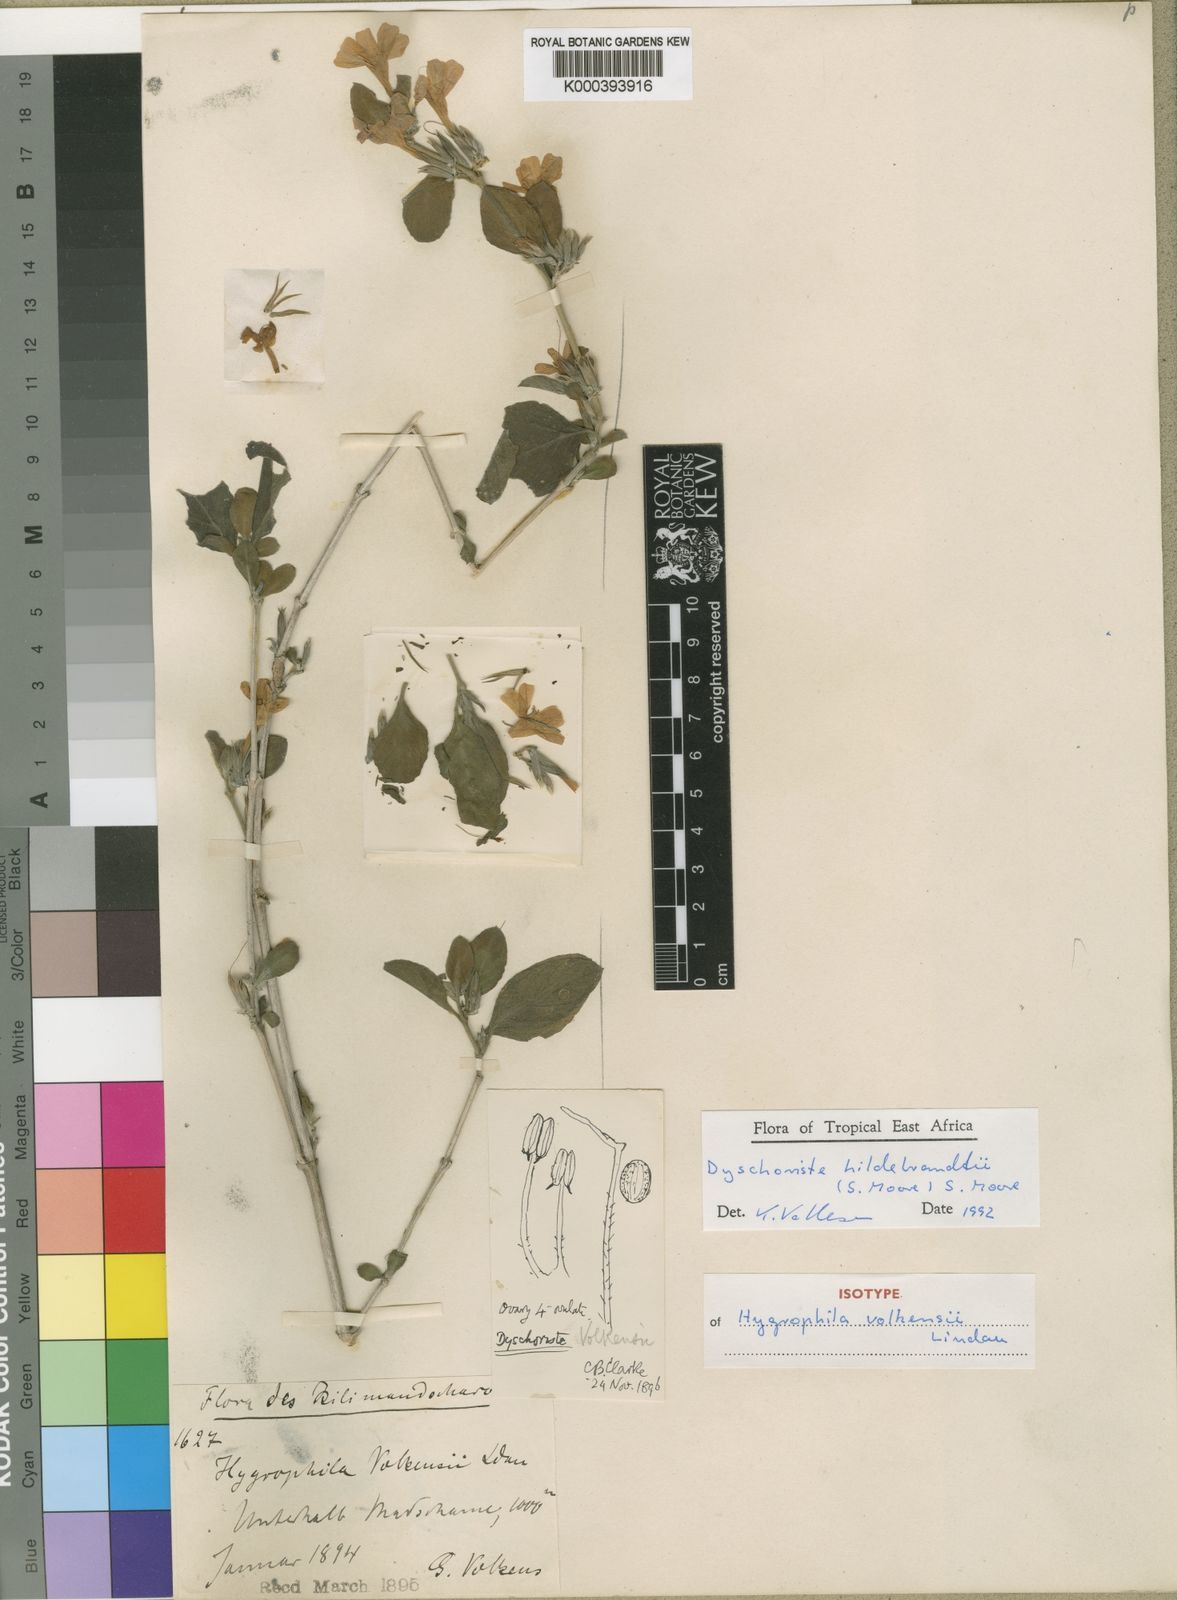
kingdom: Plantae
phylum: Tracheophyta
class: Magnoliopsida
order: Lamiales
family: Acanthaceae
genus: Dyschoriste
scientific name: Dyschoriste
